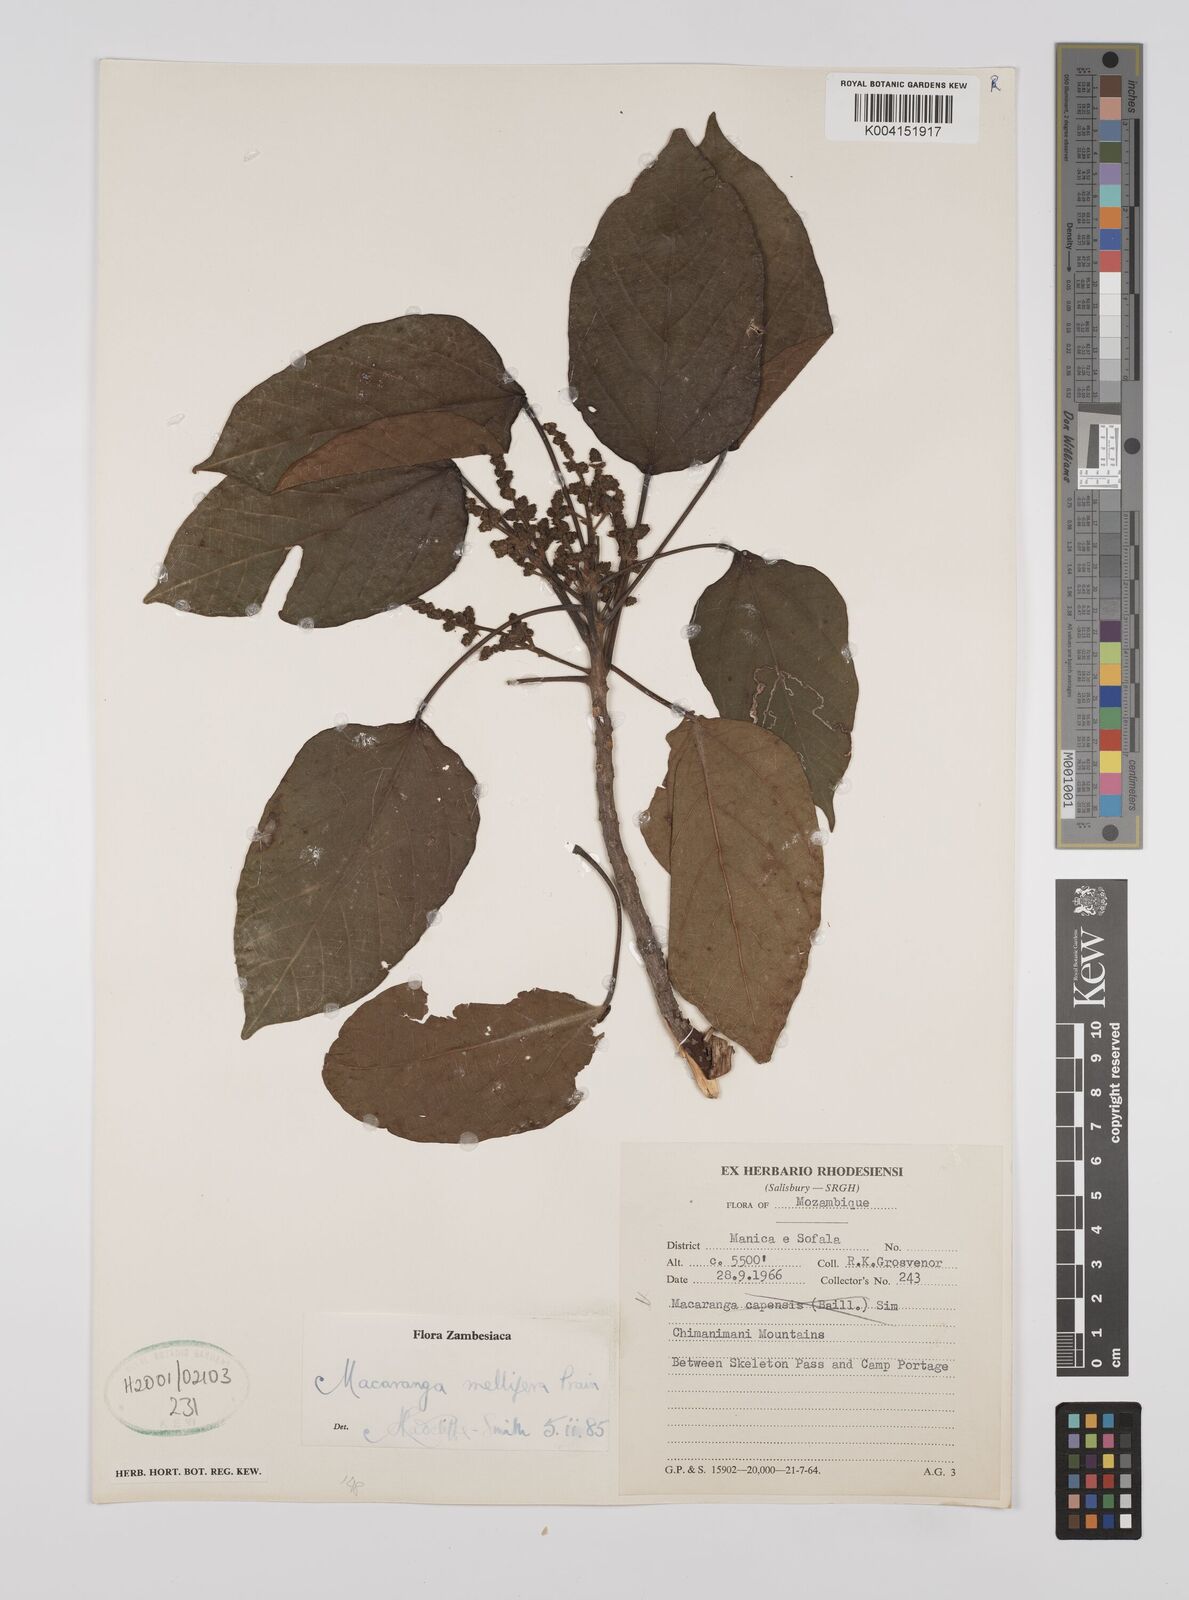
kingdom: Plantae
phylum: Tracheophyta
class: Magnoliopsida
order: Malpighiales
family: Euphorbiaceae
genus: Macaranga
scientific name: Macaranga mellifera
